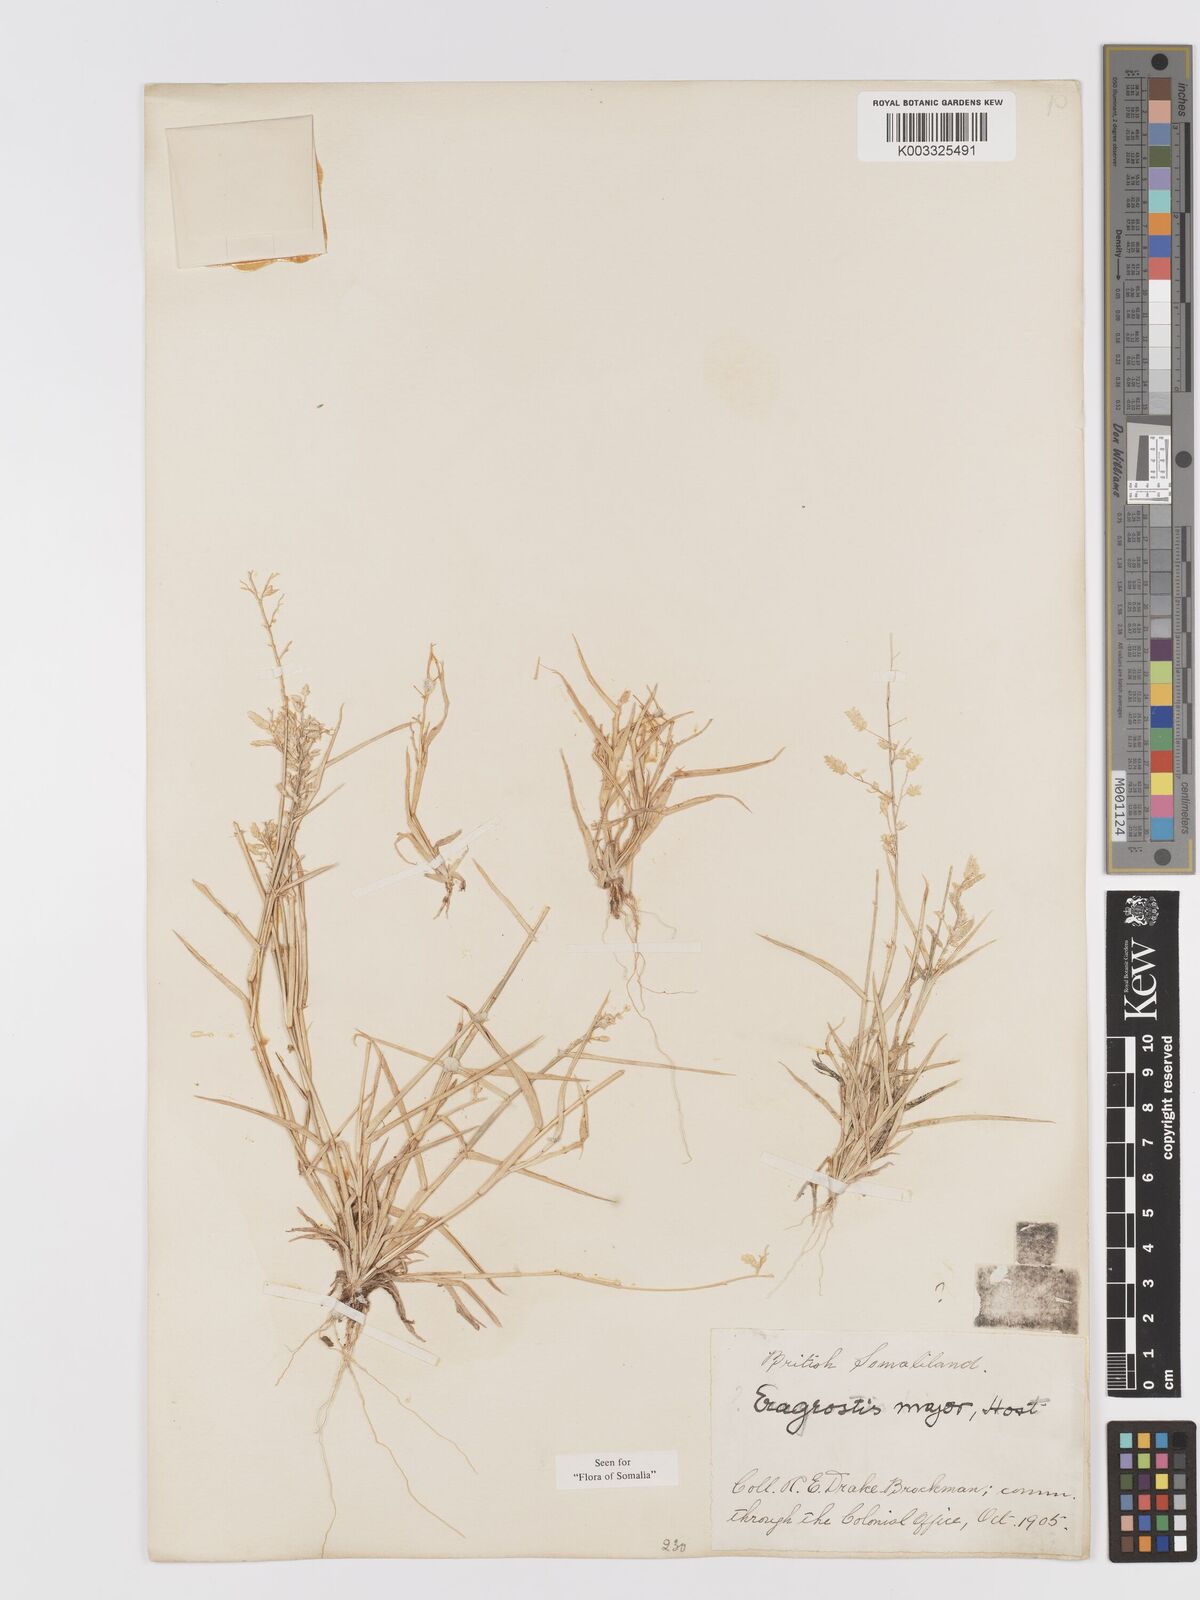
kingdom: Plantae
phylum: Tracheophyta
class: Liliopsida
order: Poales
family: Poaceae
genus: Eragrostis
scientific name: Eragrostis cilianensis
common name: Stinkgrass
